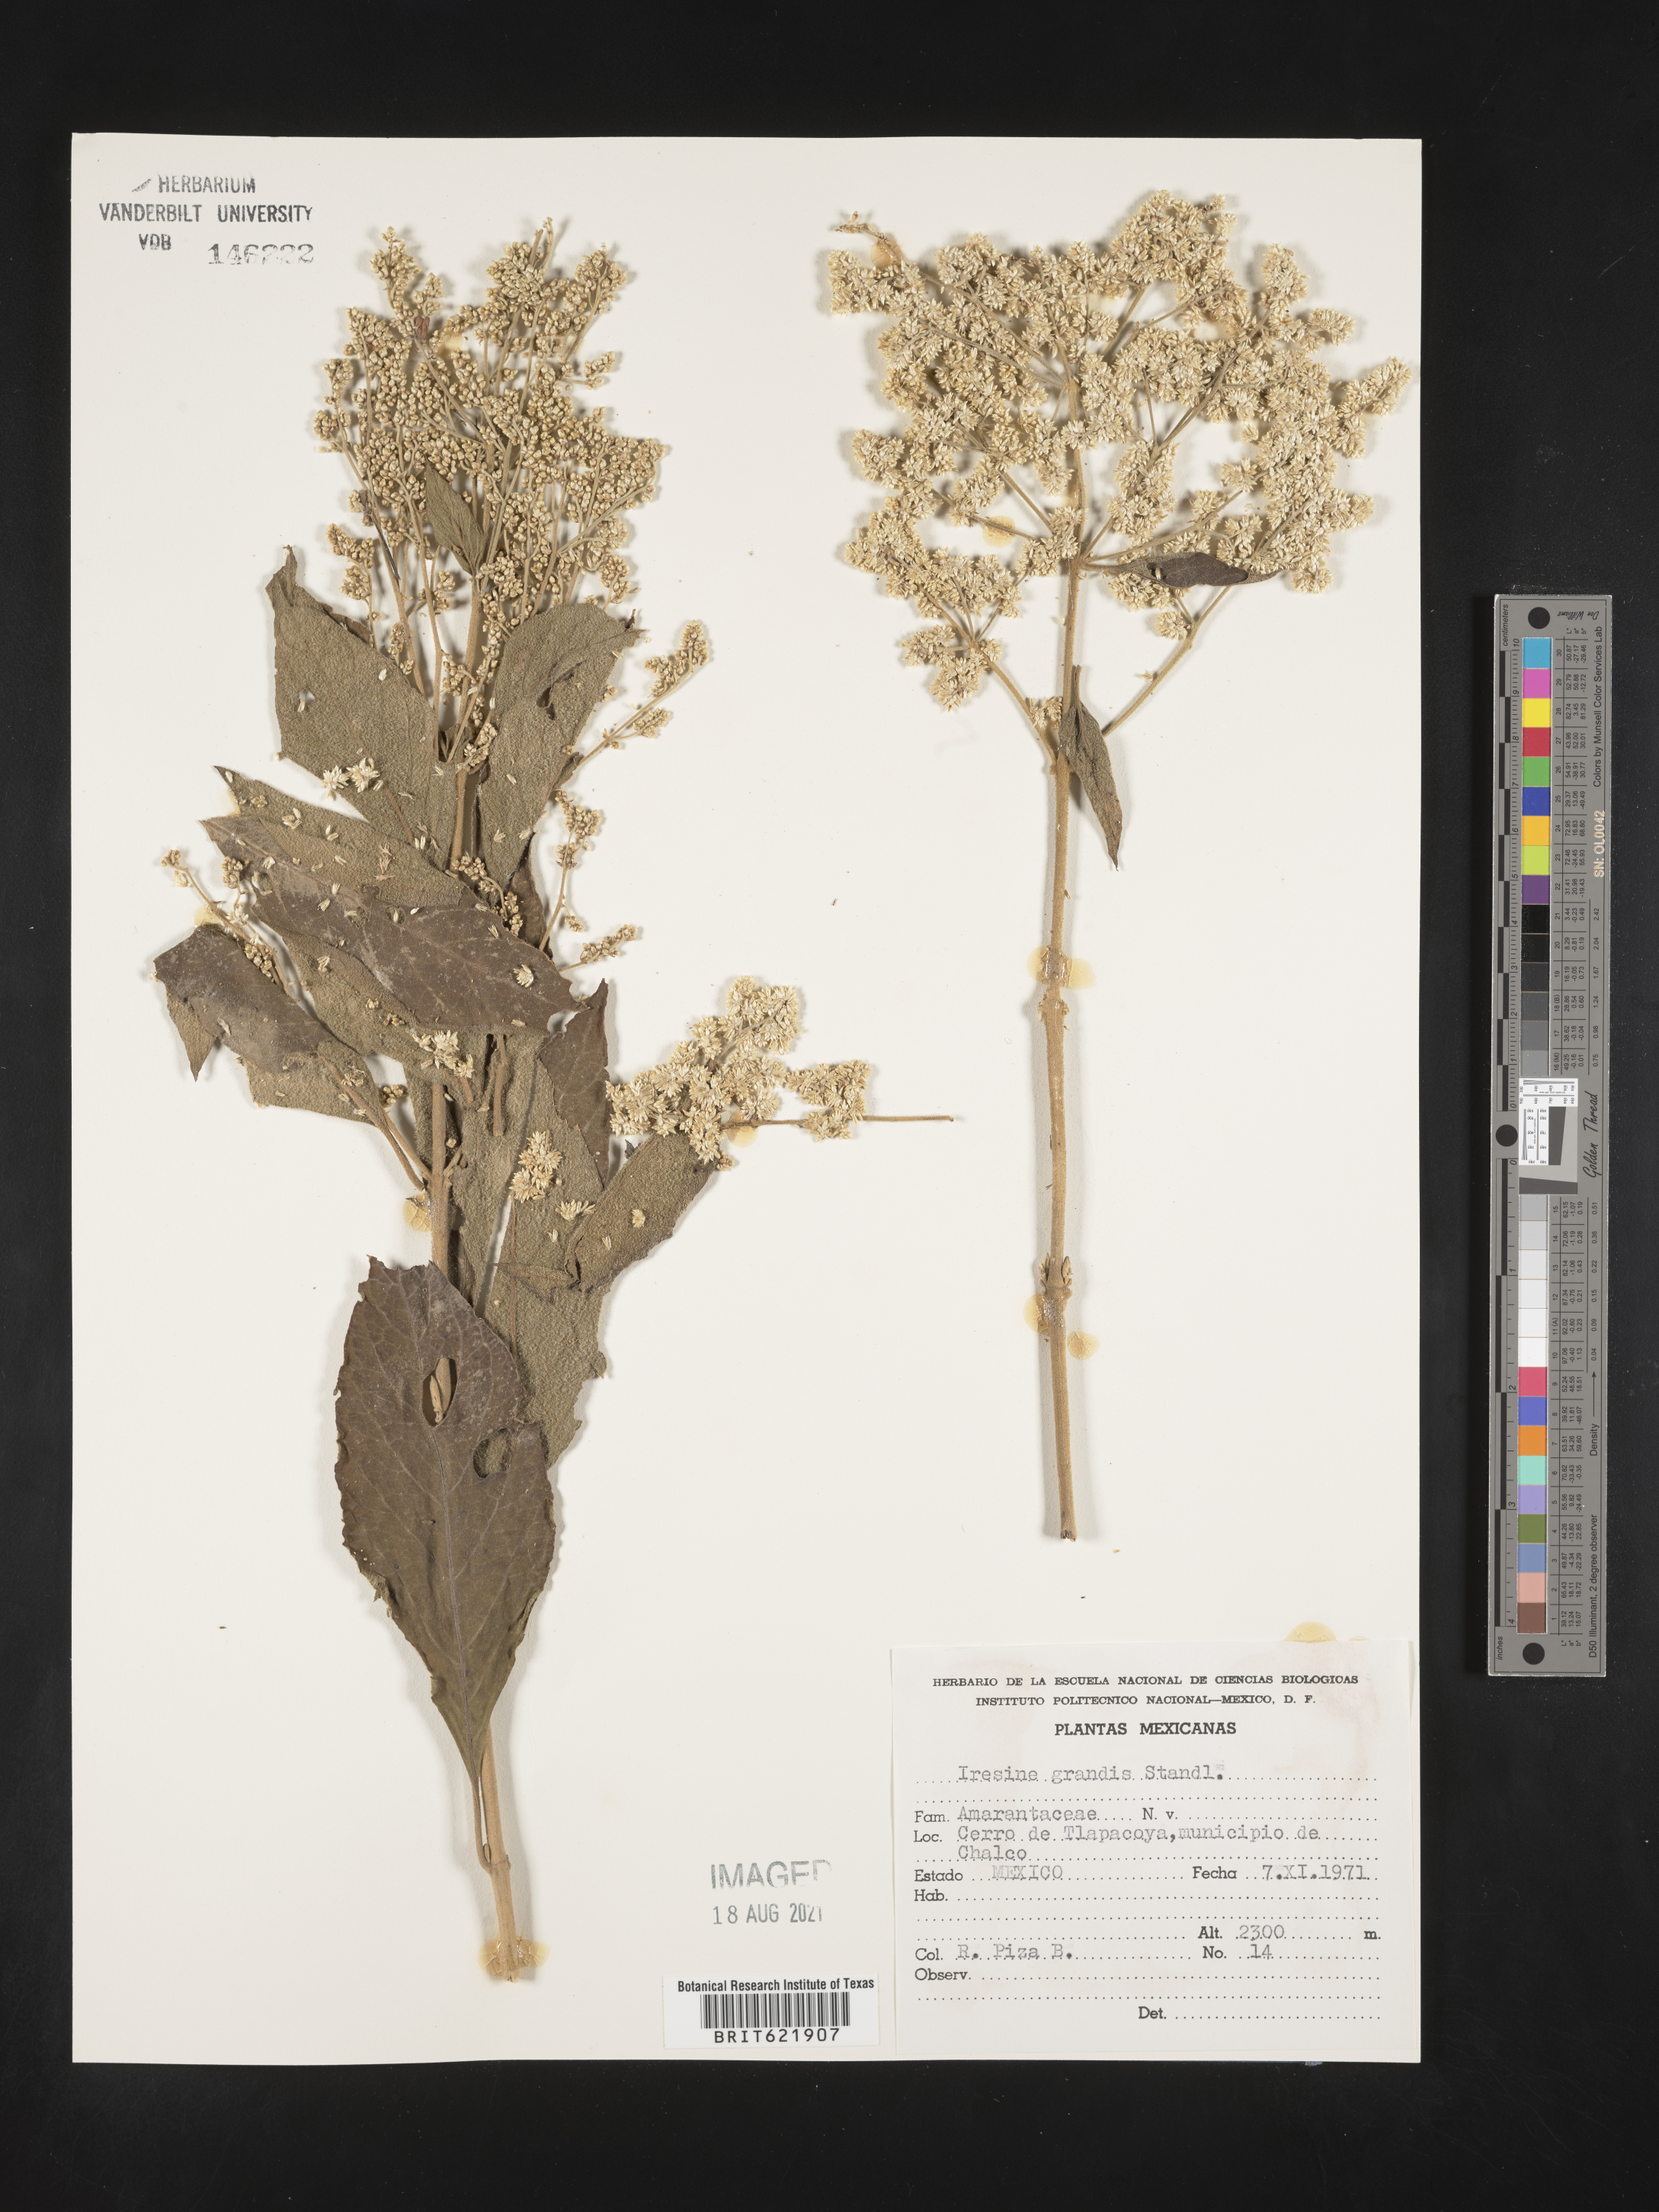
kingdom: Plantae
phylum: Tracheophyta
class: Magnoliopsida
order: Caryophyllales
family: Amaranthaceae
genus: Iresine
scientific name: Iresine
